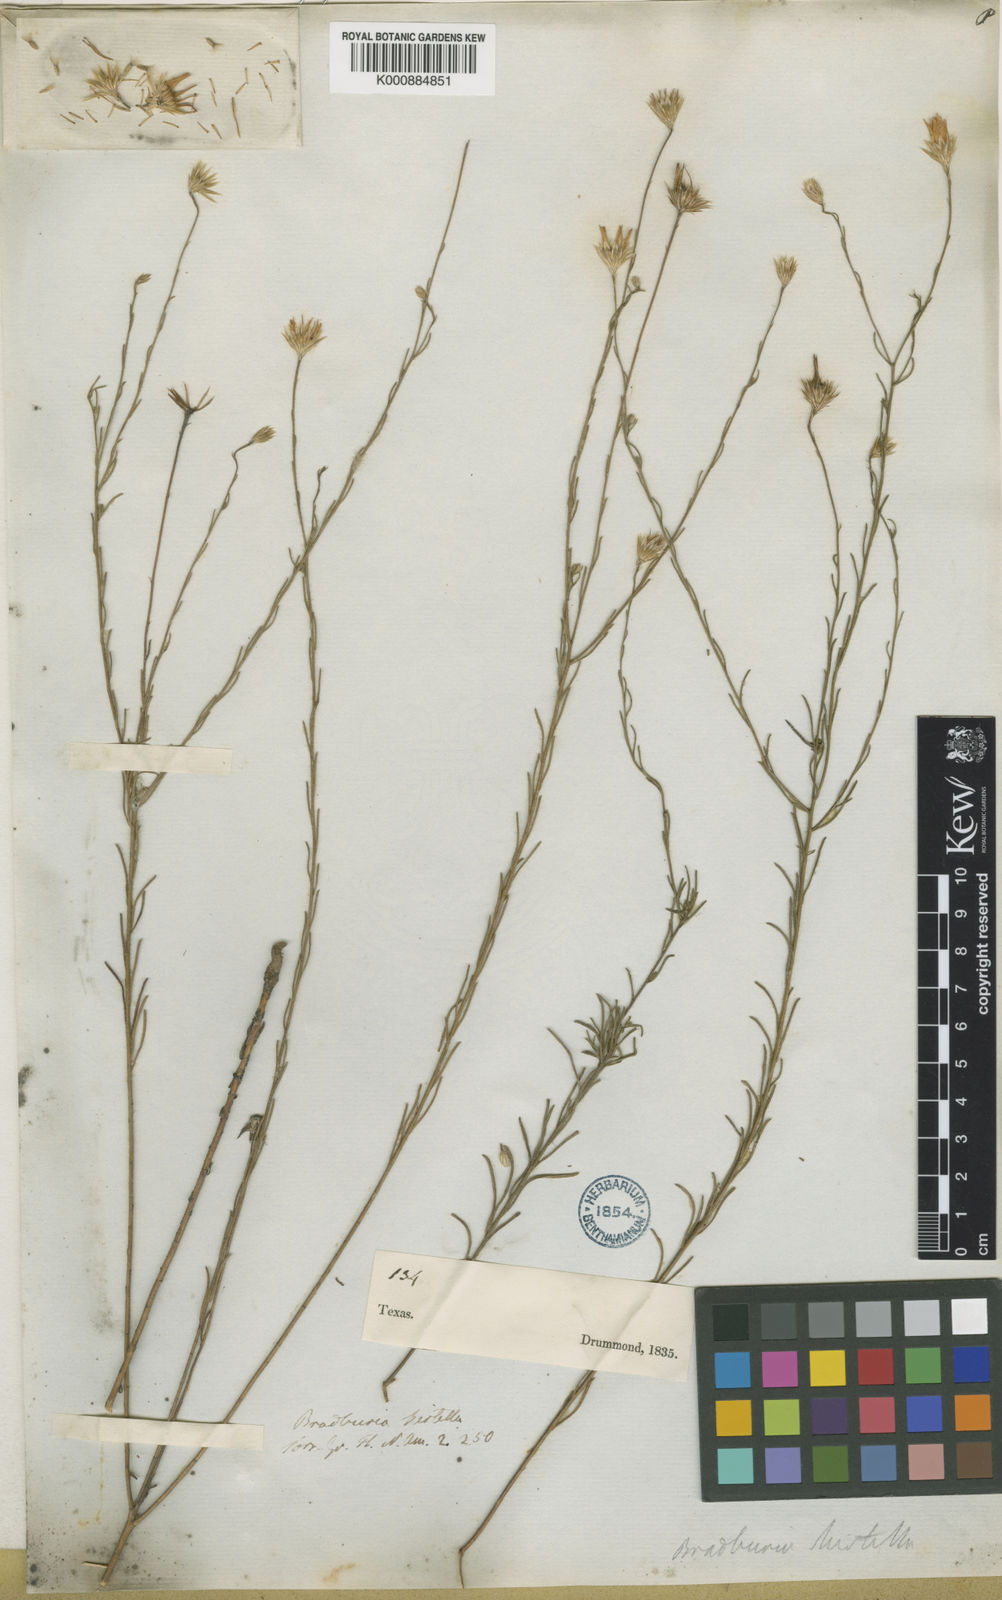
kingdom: Plantae
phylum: Tracheophyta
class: Magnoliopsida
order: Asterales
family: Asteraceae
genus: Erigeron
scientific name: Erigeron chrysopsidis
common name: Dwarf yellow fleabane
